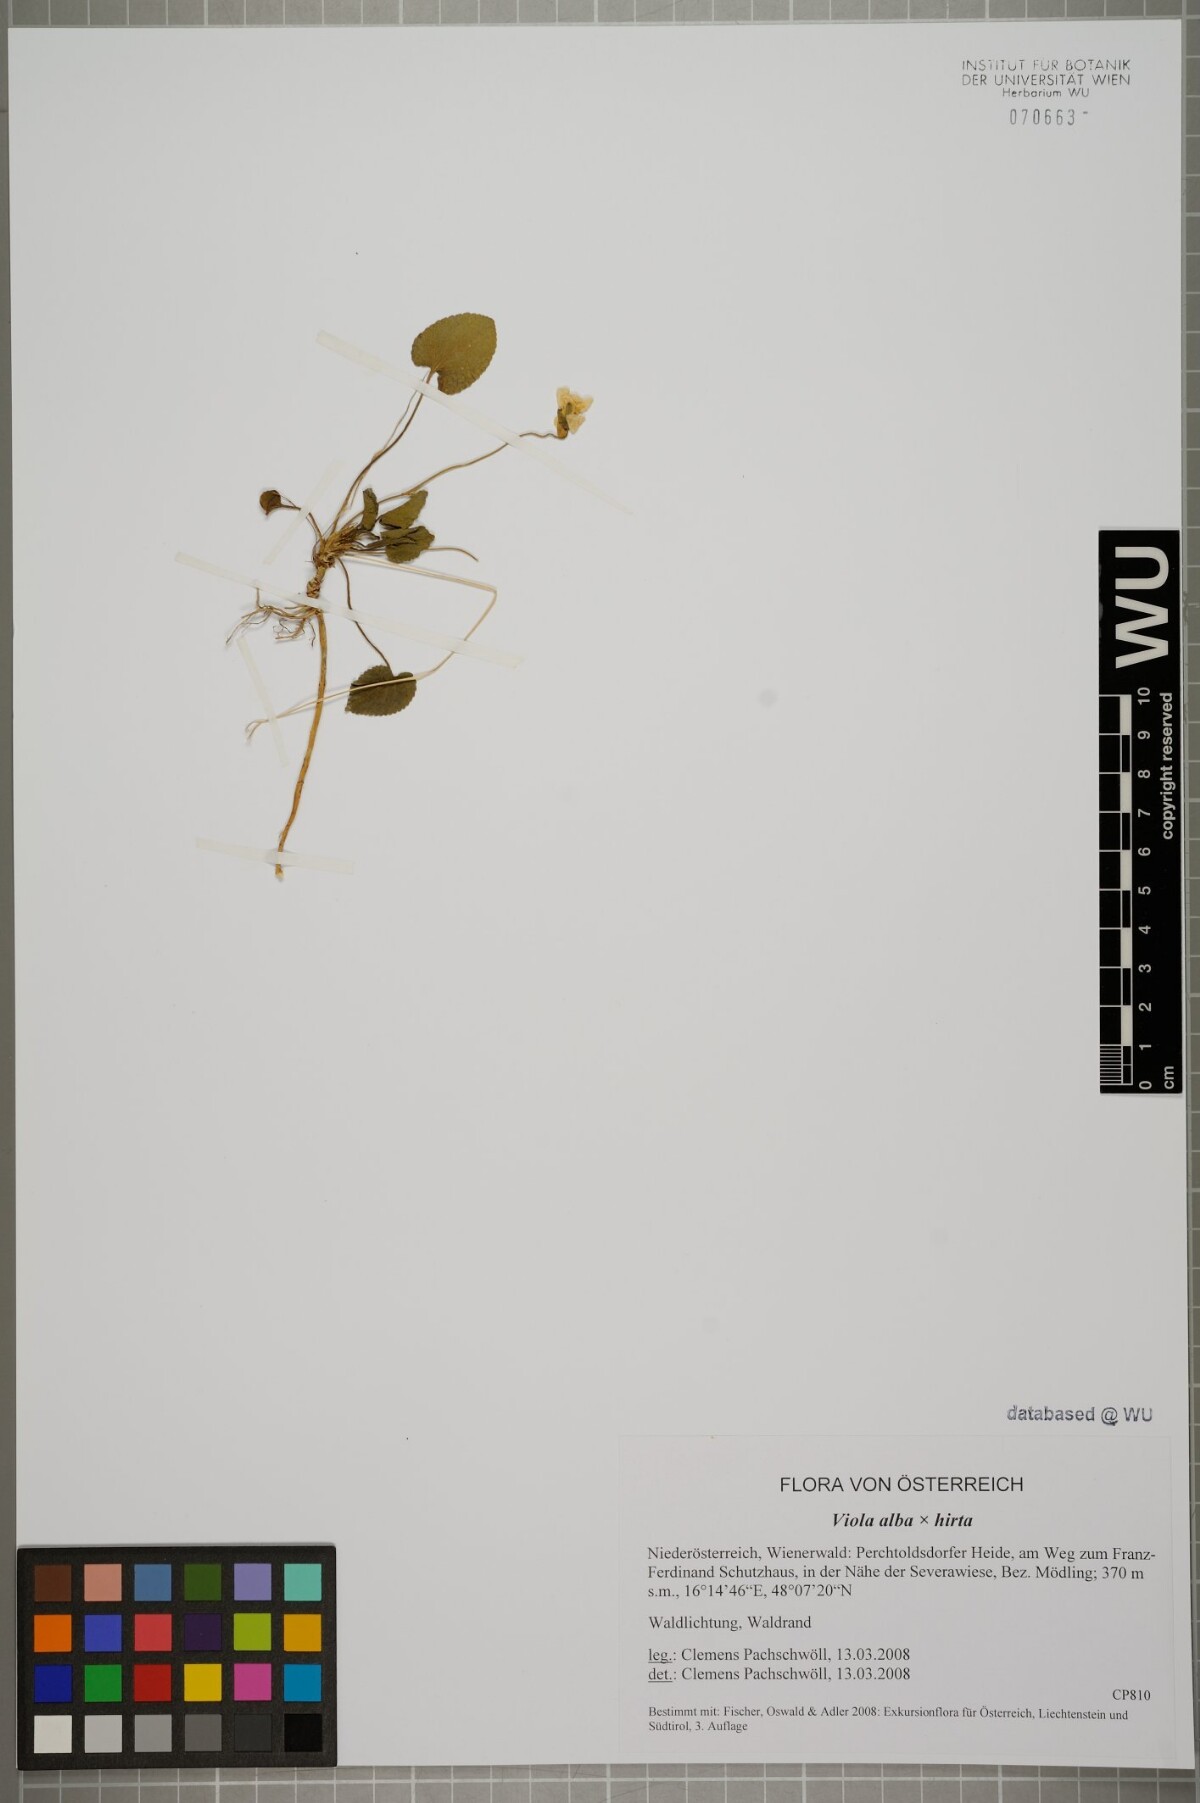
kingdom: Plantae
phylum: Tracheophyta
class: Magnoliopsida
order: Malpighiales
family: Violaceae
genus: Viola
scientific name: Viola adulterina
